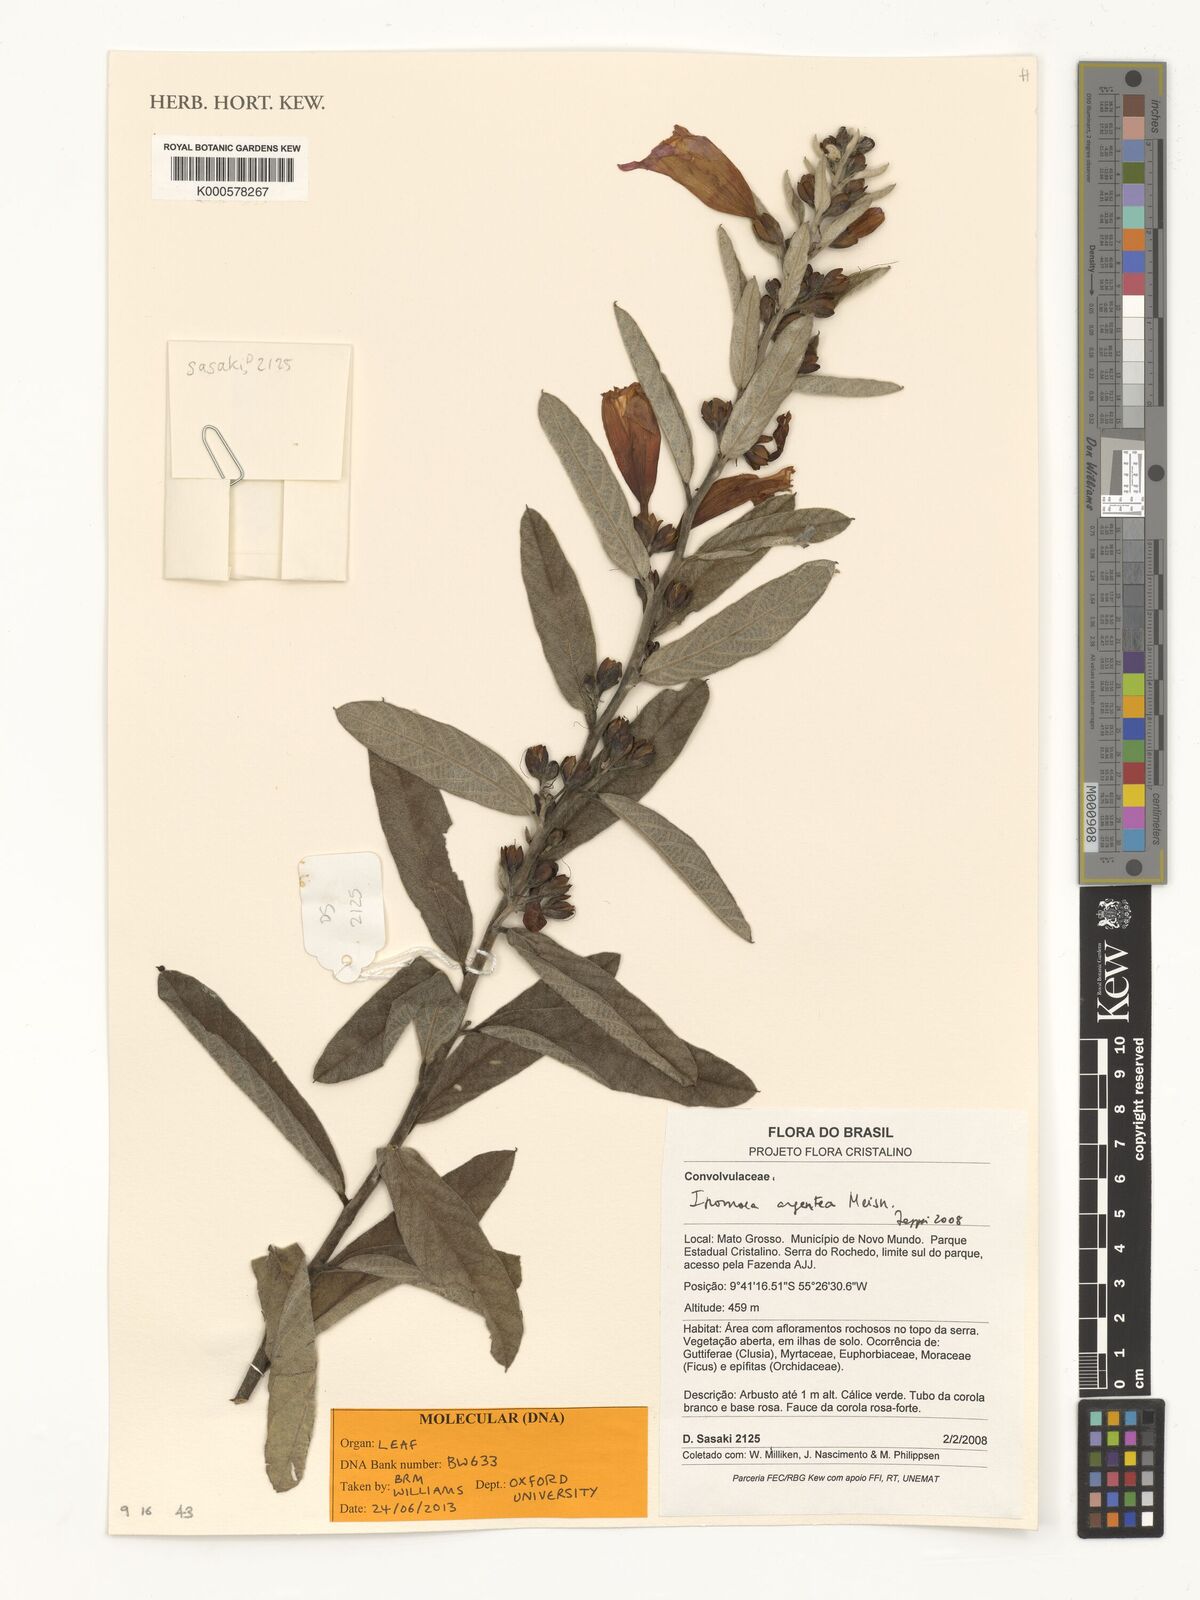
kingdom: Plantae
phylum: Tracheophyta
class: Magnoliopsida
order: Solanales
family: Convolvulaceae
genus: Ipomoea
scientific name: Ipomoea argentea
